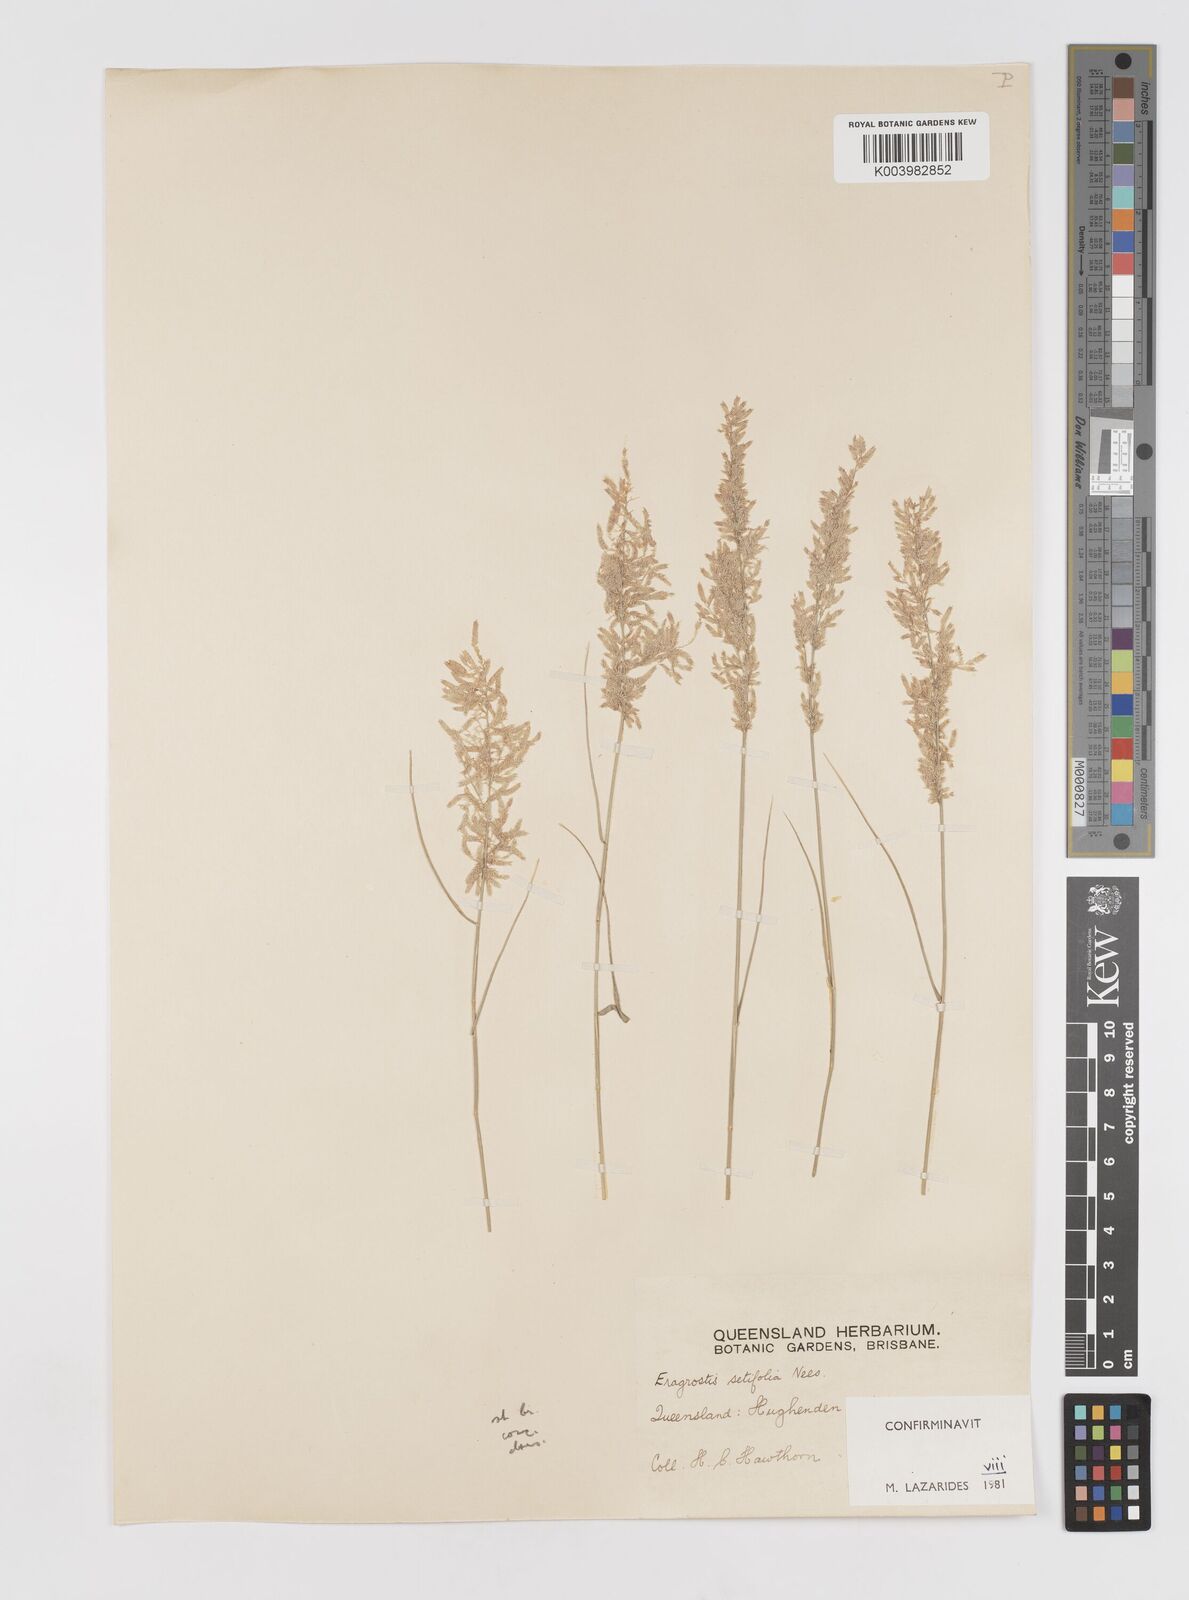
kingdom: Plantae
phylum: Tracheophyta
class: Liliopsida
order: Poales
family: Poaceae
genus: Eragrostis
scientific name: Eragrostis setifolia
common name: Bristleleaf lovegrass
